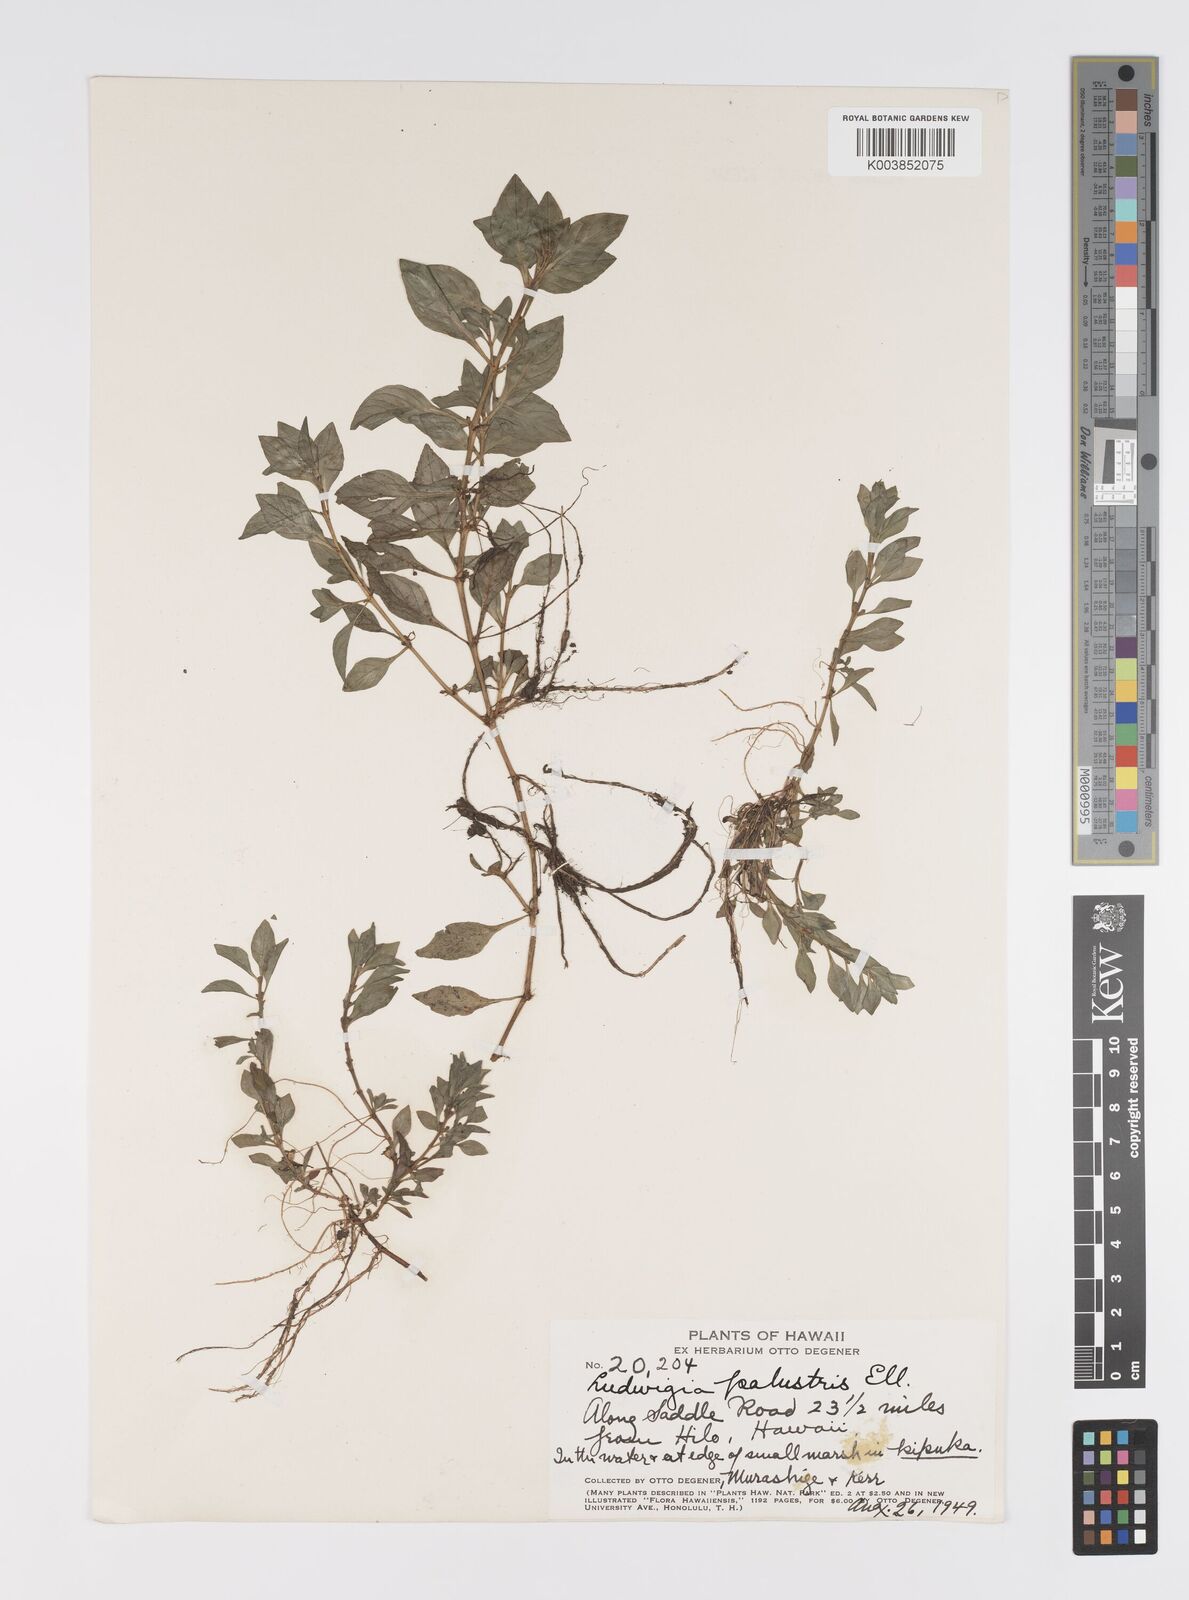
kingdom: Plantae
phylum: Tracheophyta
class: Magnoliopsida
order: Myrtales
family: Onagraceae
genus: Ludwigia
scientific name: Ludwigia palustris
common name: Hampshire-purslane
